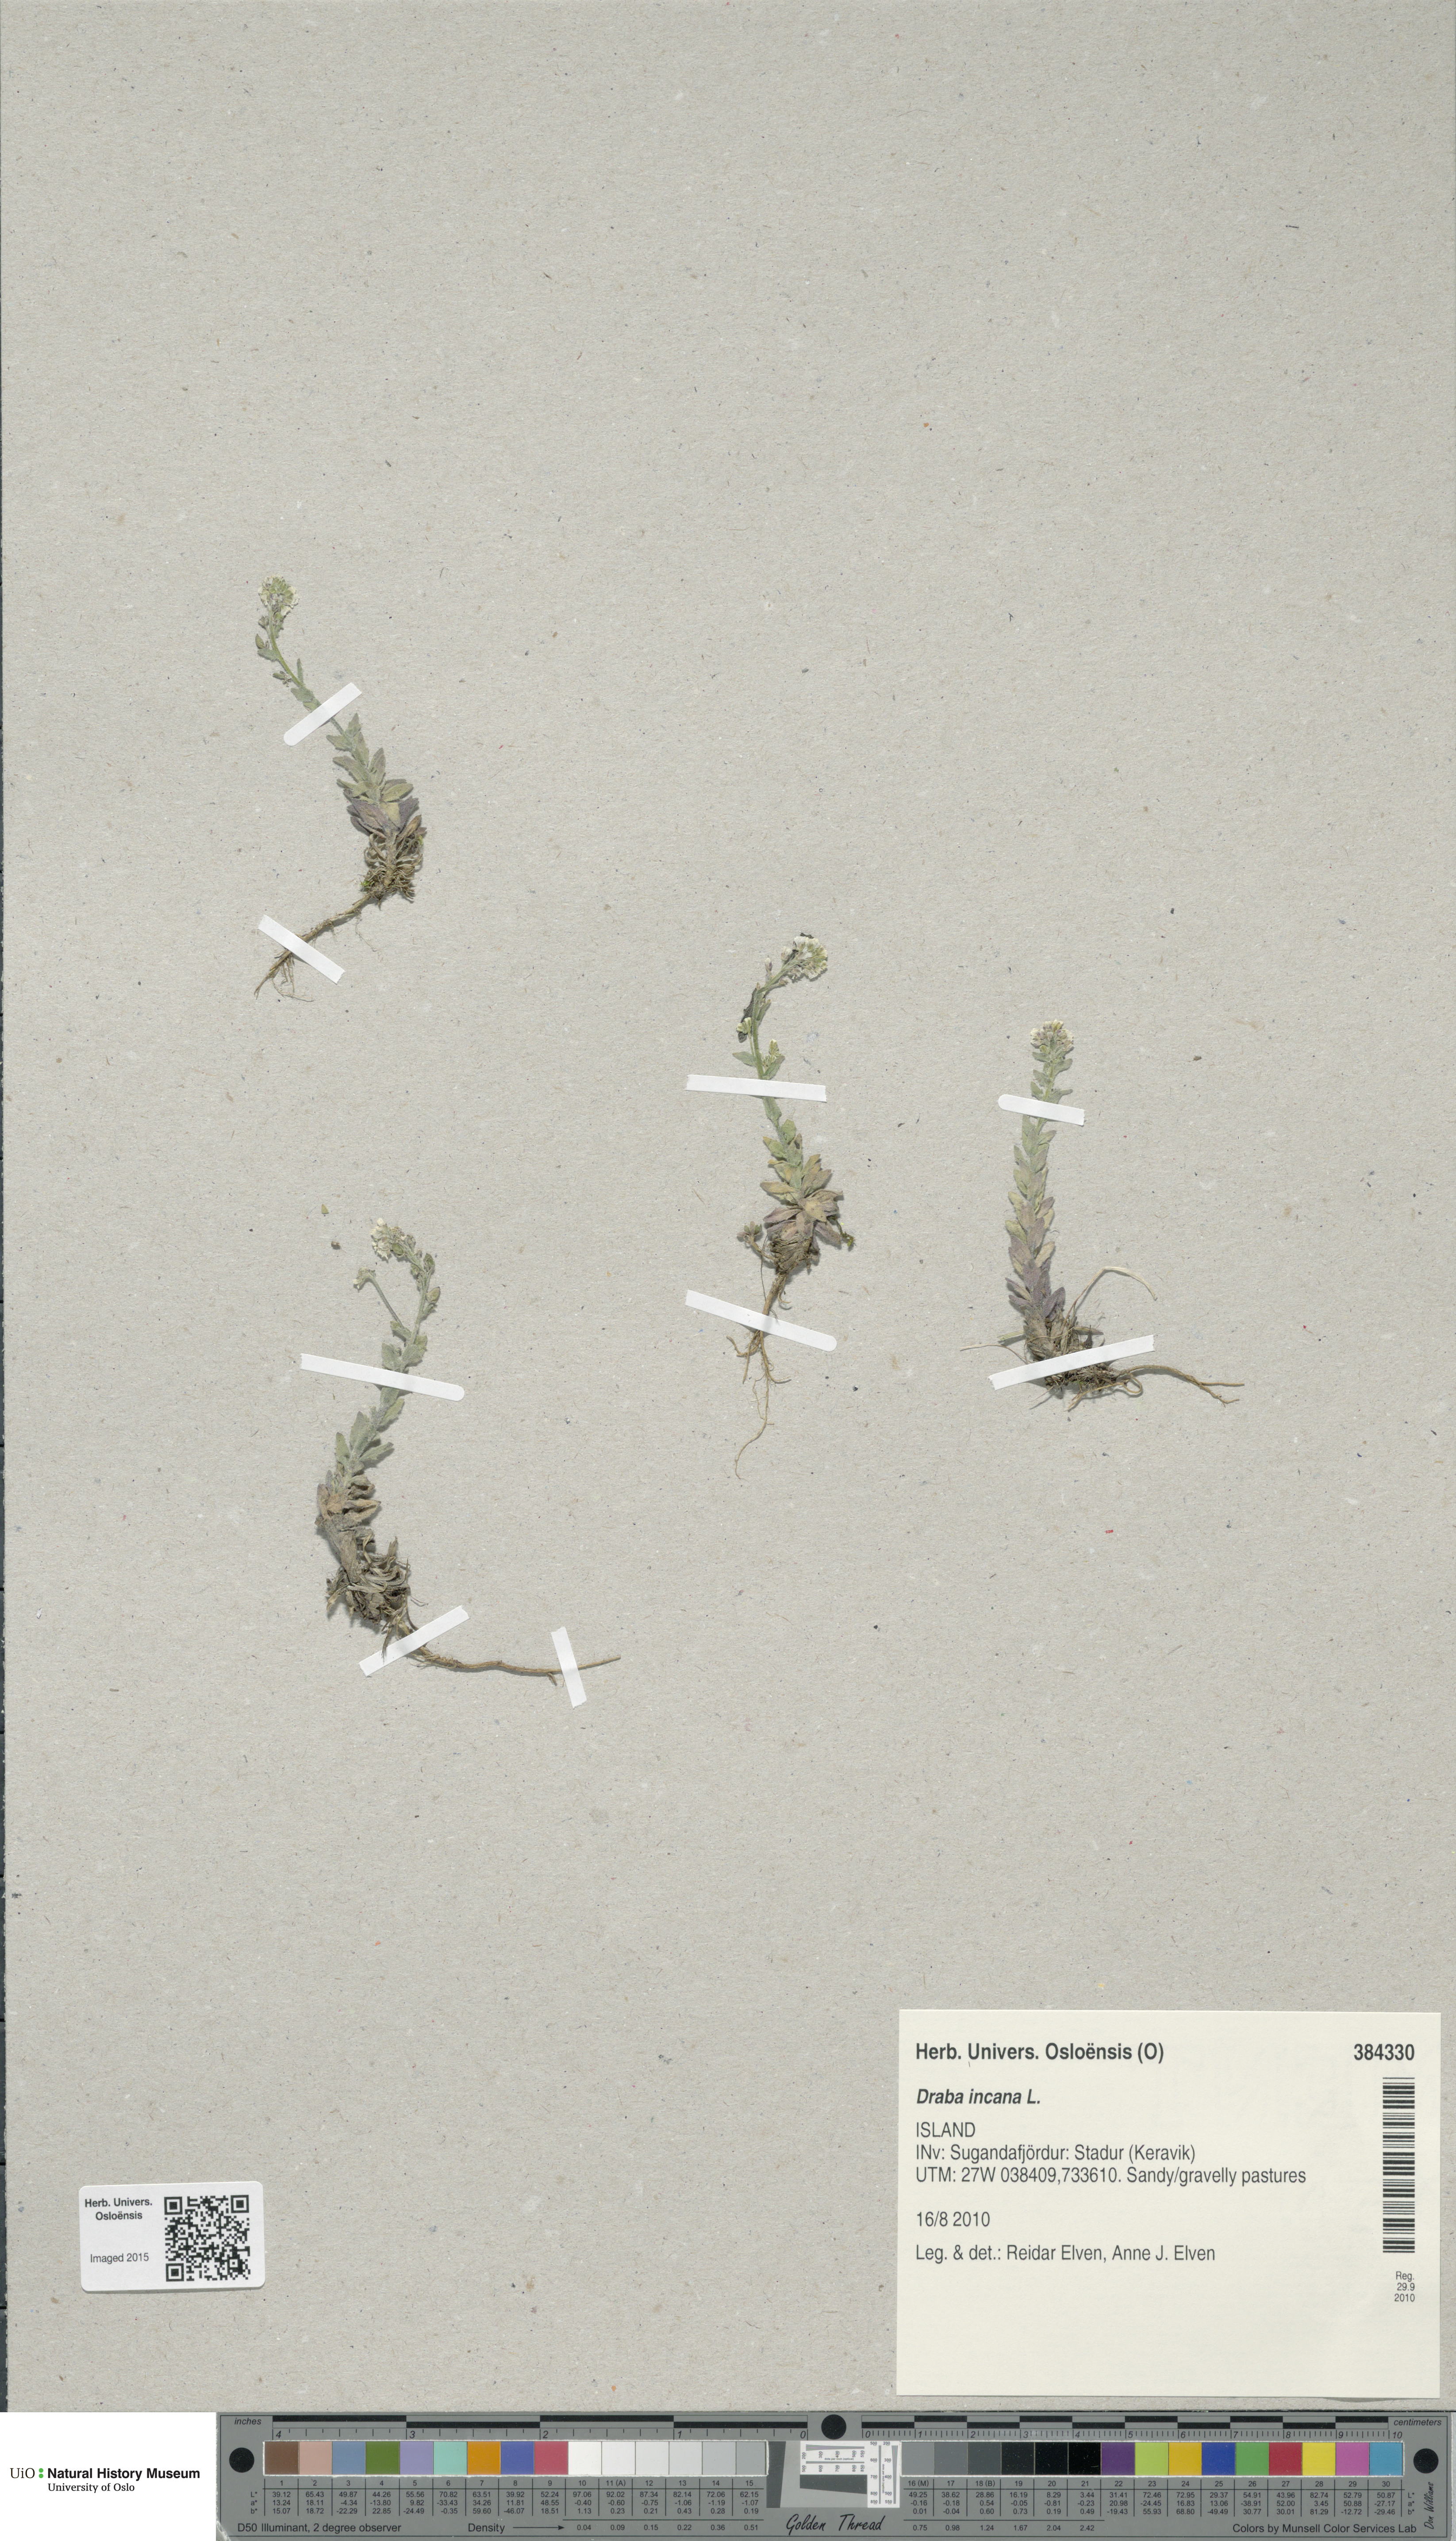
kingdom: Plantae
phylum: Tracheophyta
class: Magnoliopsida
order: Brassicales
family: Brassicaceae
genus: Draba
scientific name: Draba incana
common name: Hoary whitlow-grass
